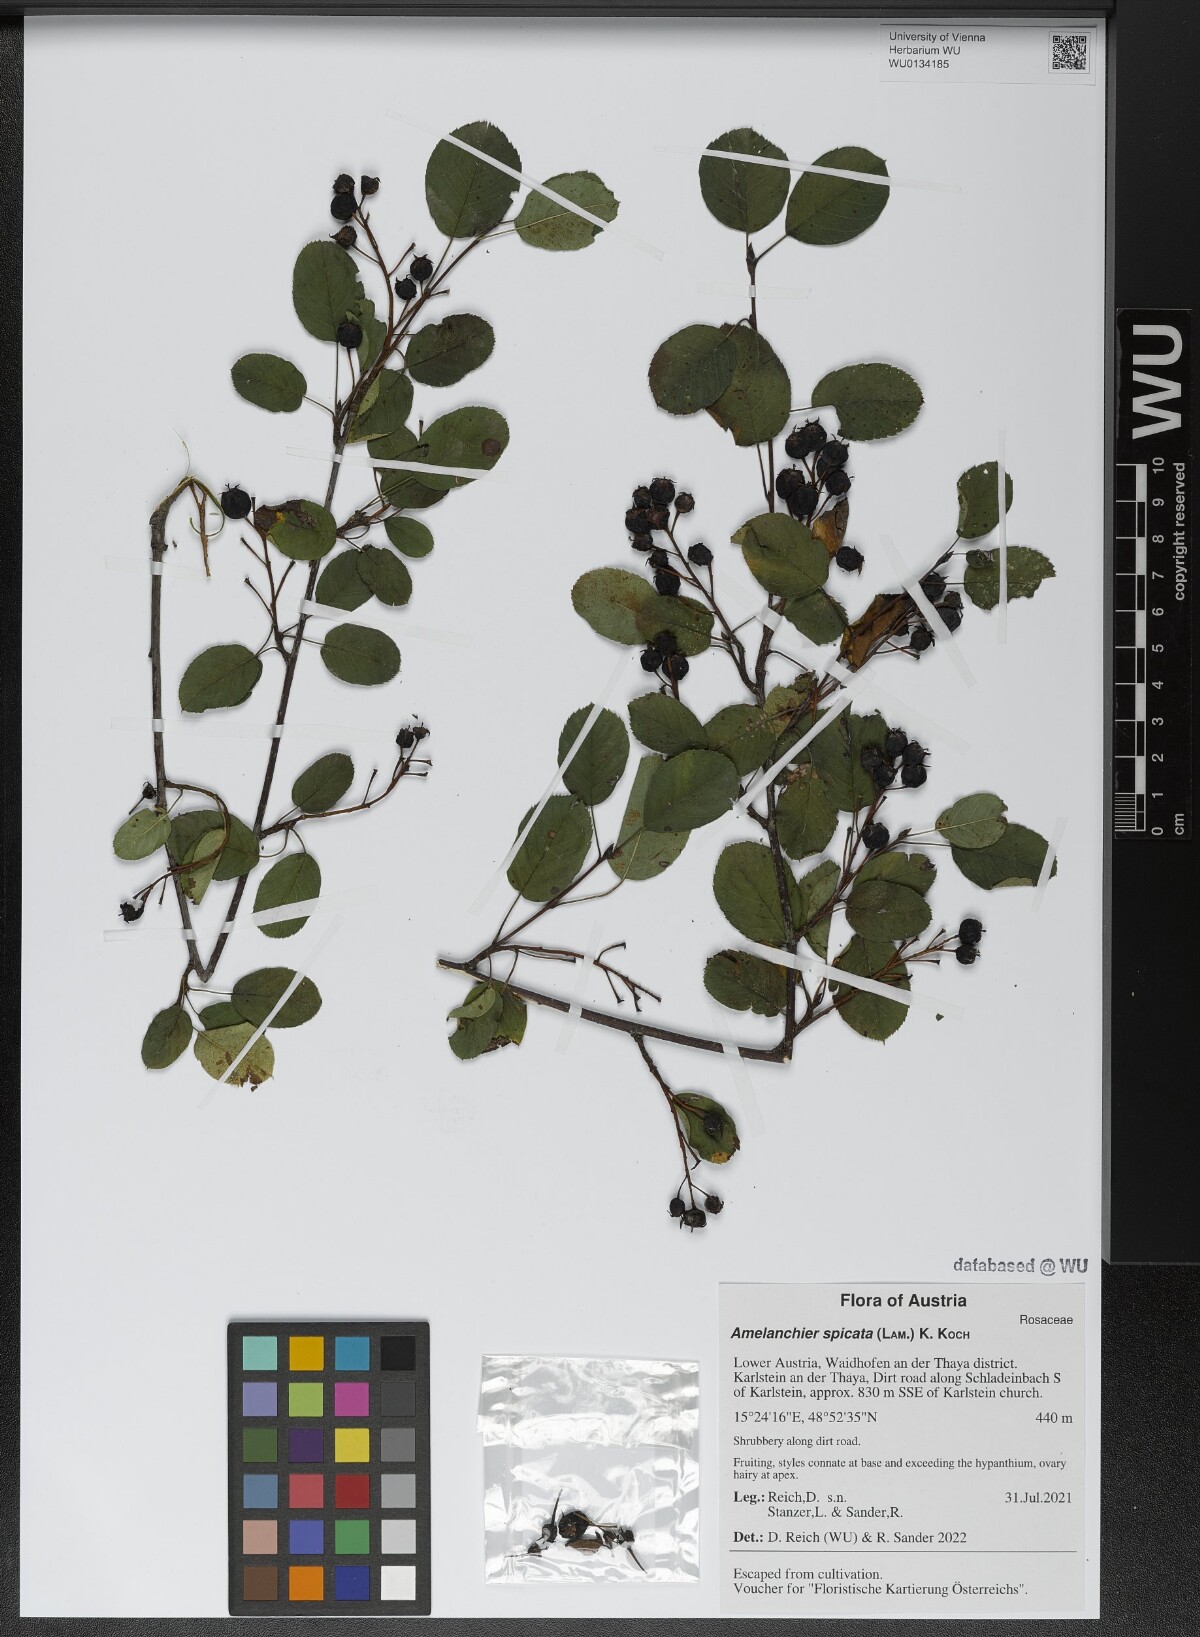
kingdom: Plantae
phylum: Tracheophyta
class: Magnoliopsida
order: Rosales
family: Rosaceae
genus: Amelanchier
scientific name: Amelanchier humilis
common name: Low juneberry
